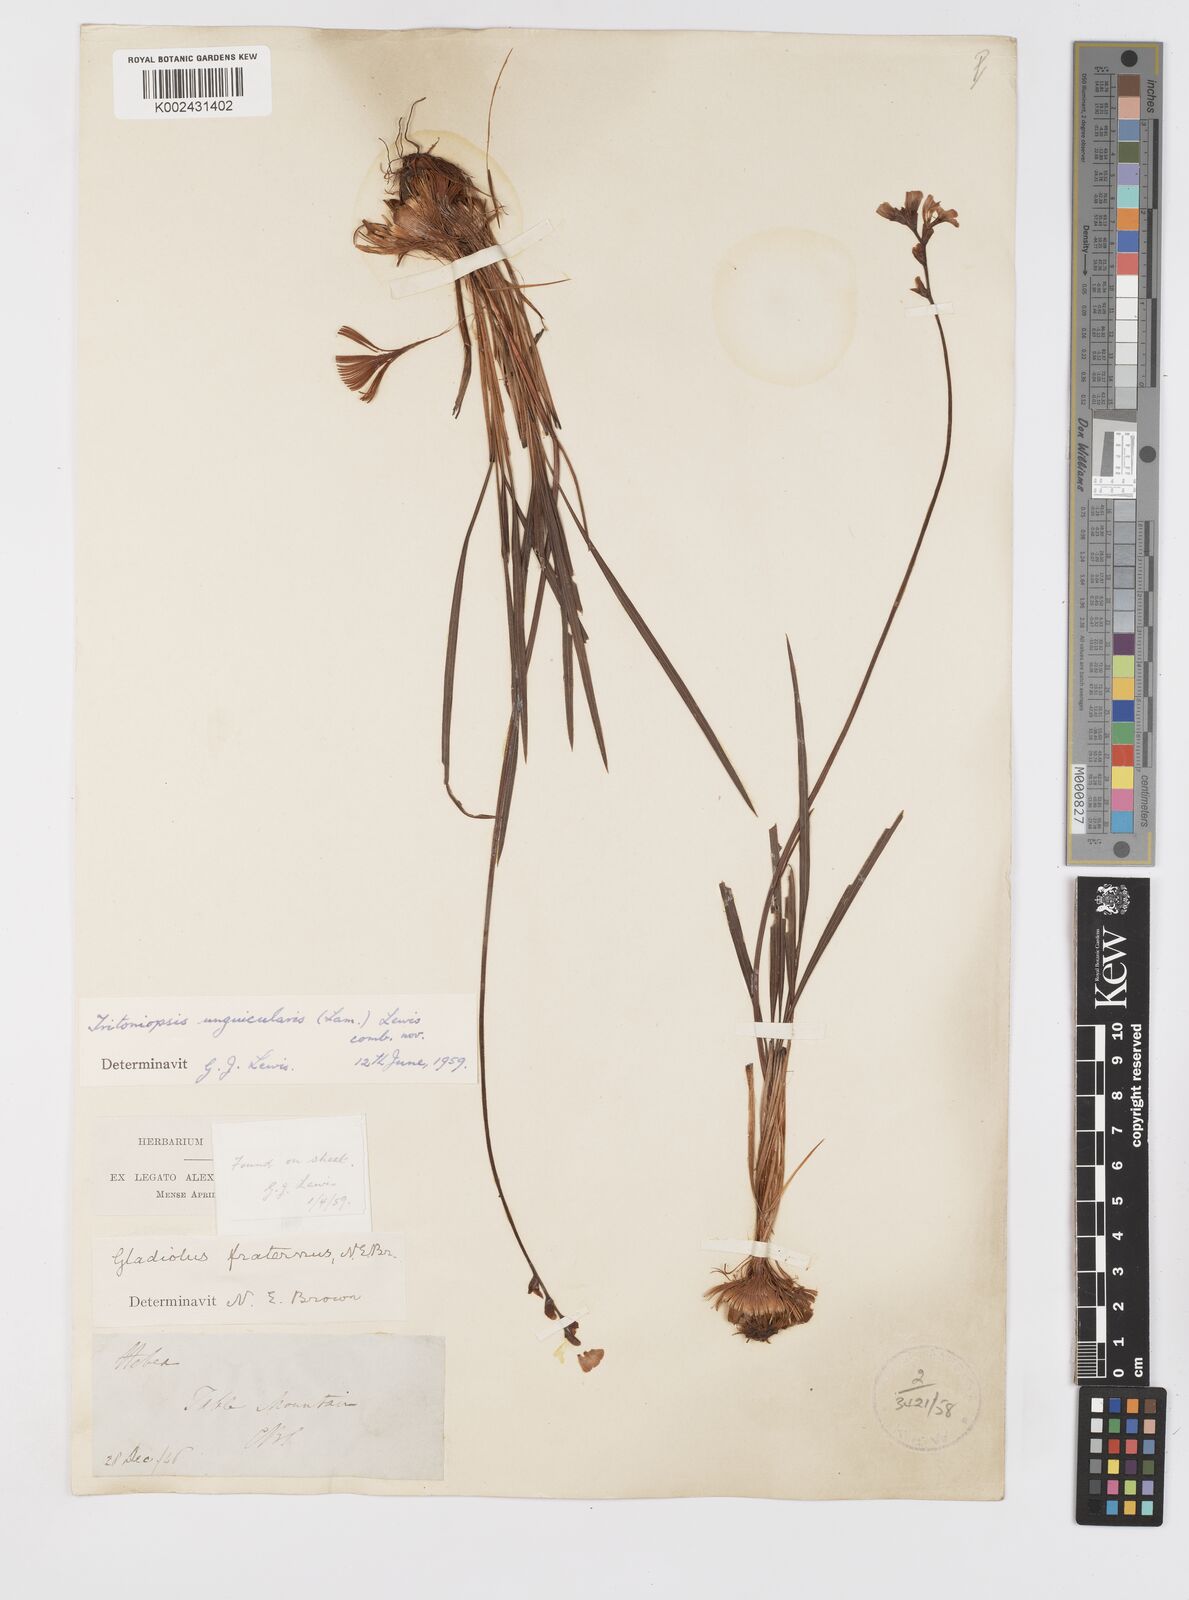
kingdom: Plantae
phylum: Tracheophyta
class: Liliopsida
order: Asparagales
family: Iridaceae
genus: Tritoniopsis
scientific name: Tritoniopsis unguicularis
